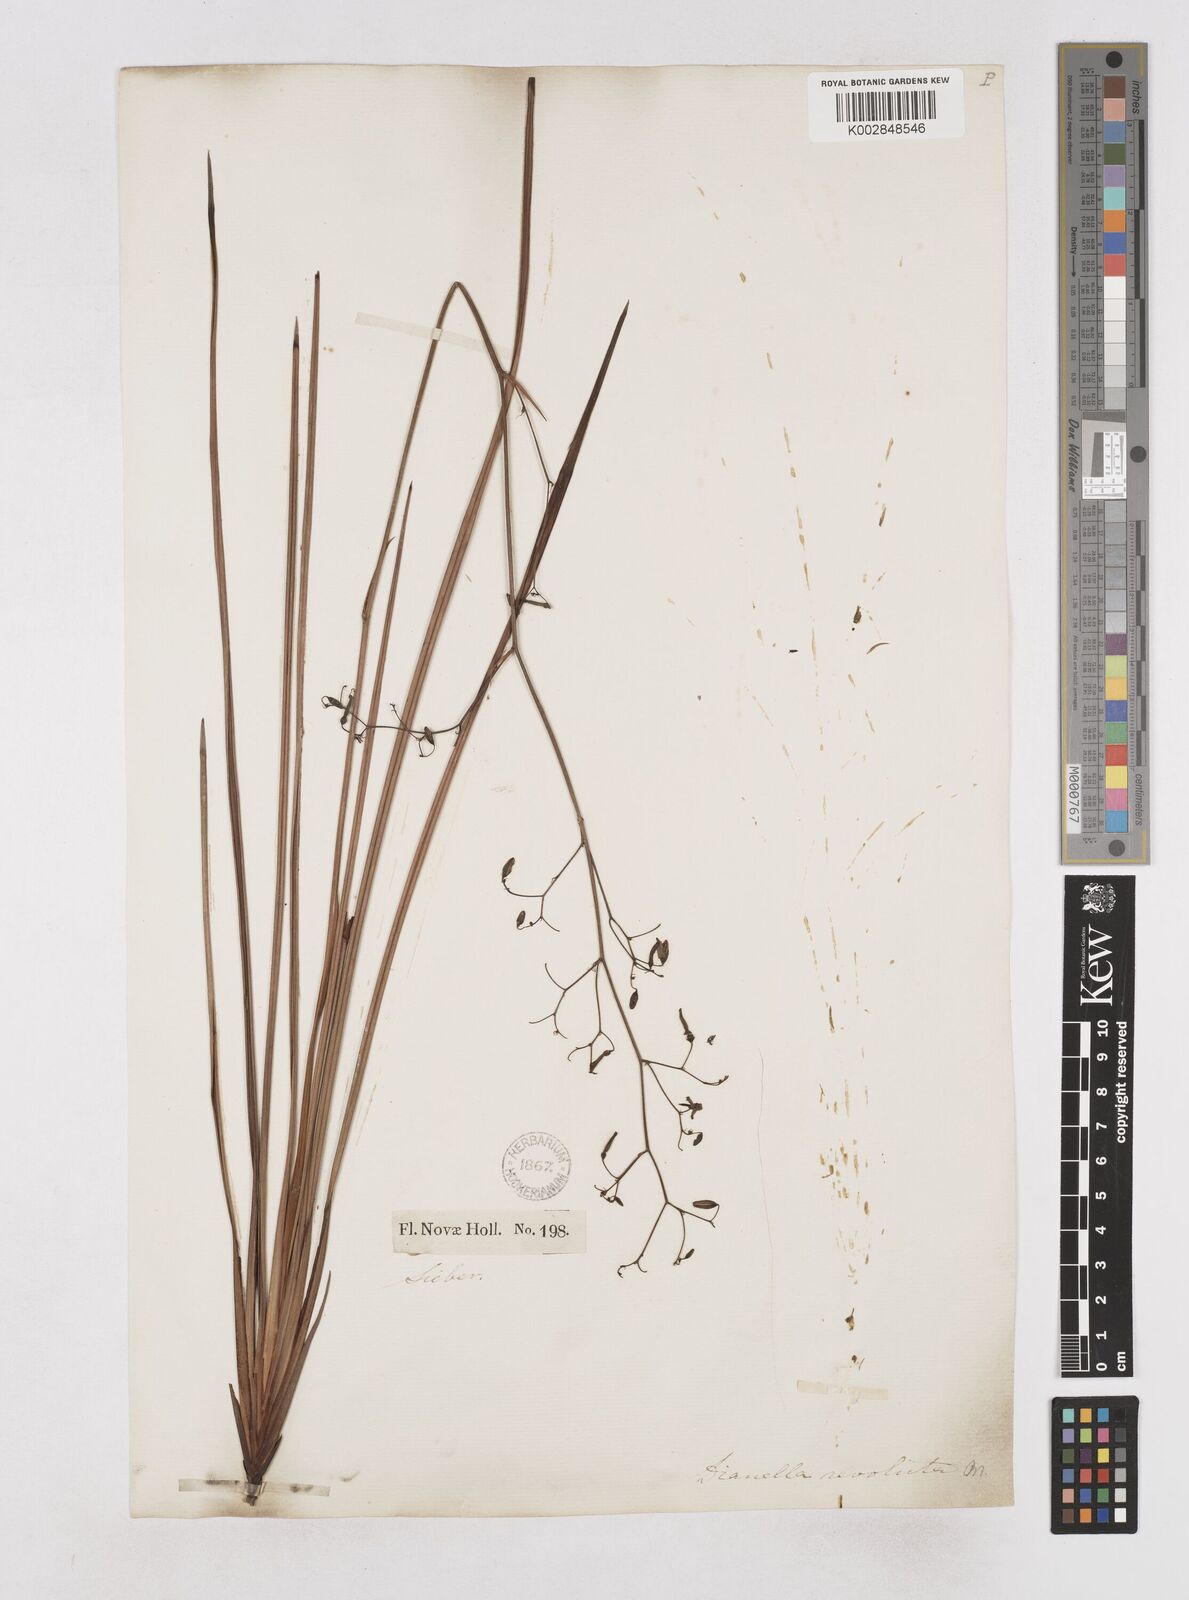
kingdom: Plantae
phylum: Tracheophyta
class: Liliopsida
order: Asparagales
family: Asphodelaceae
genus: Dianella
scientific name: Dianella revoluta
